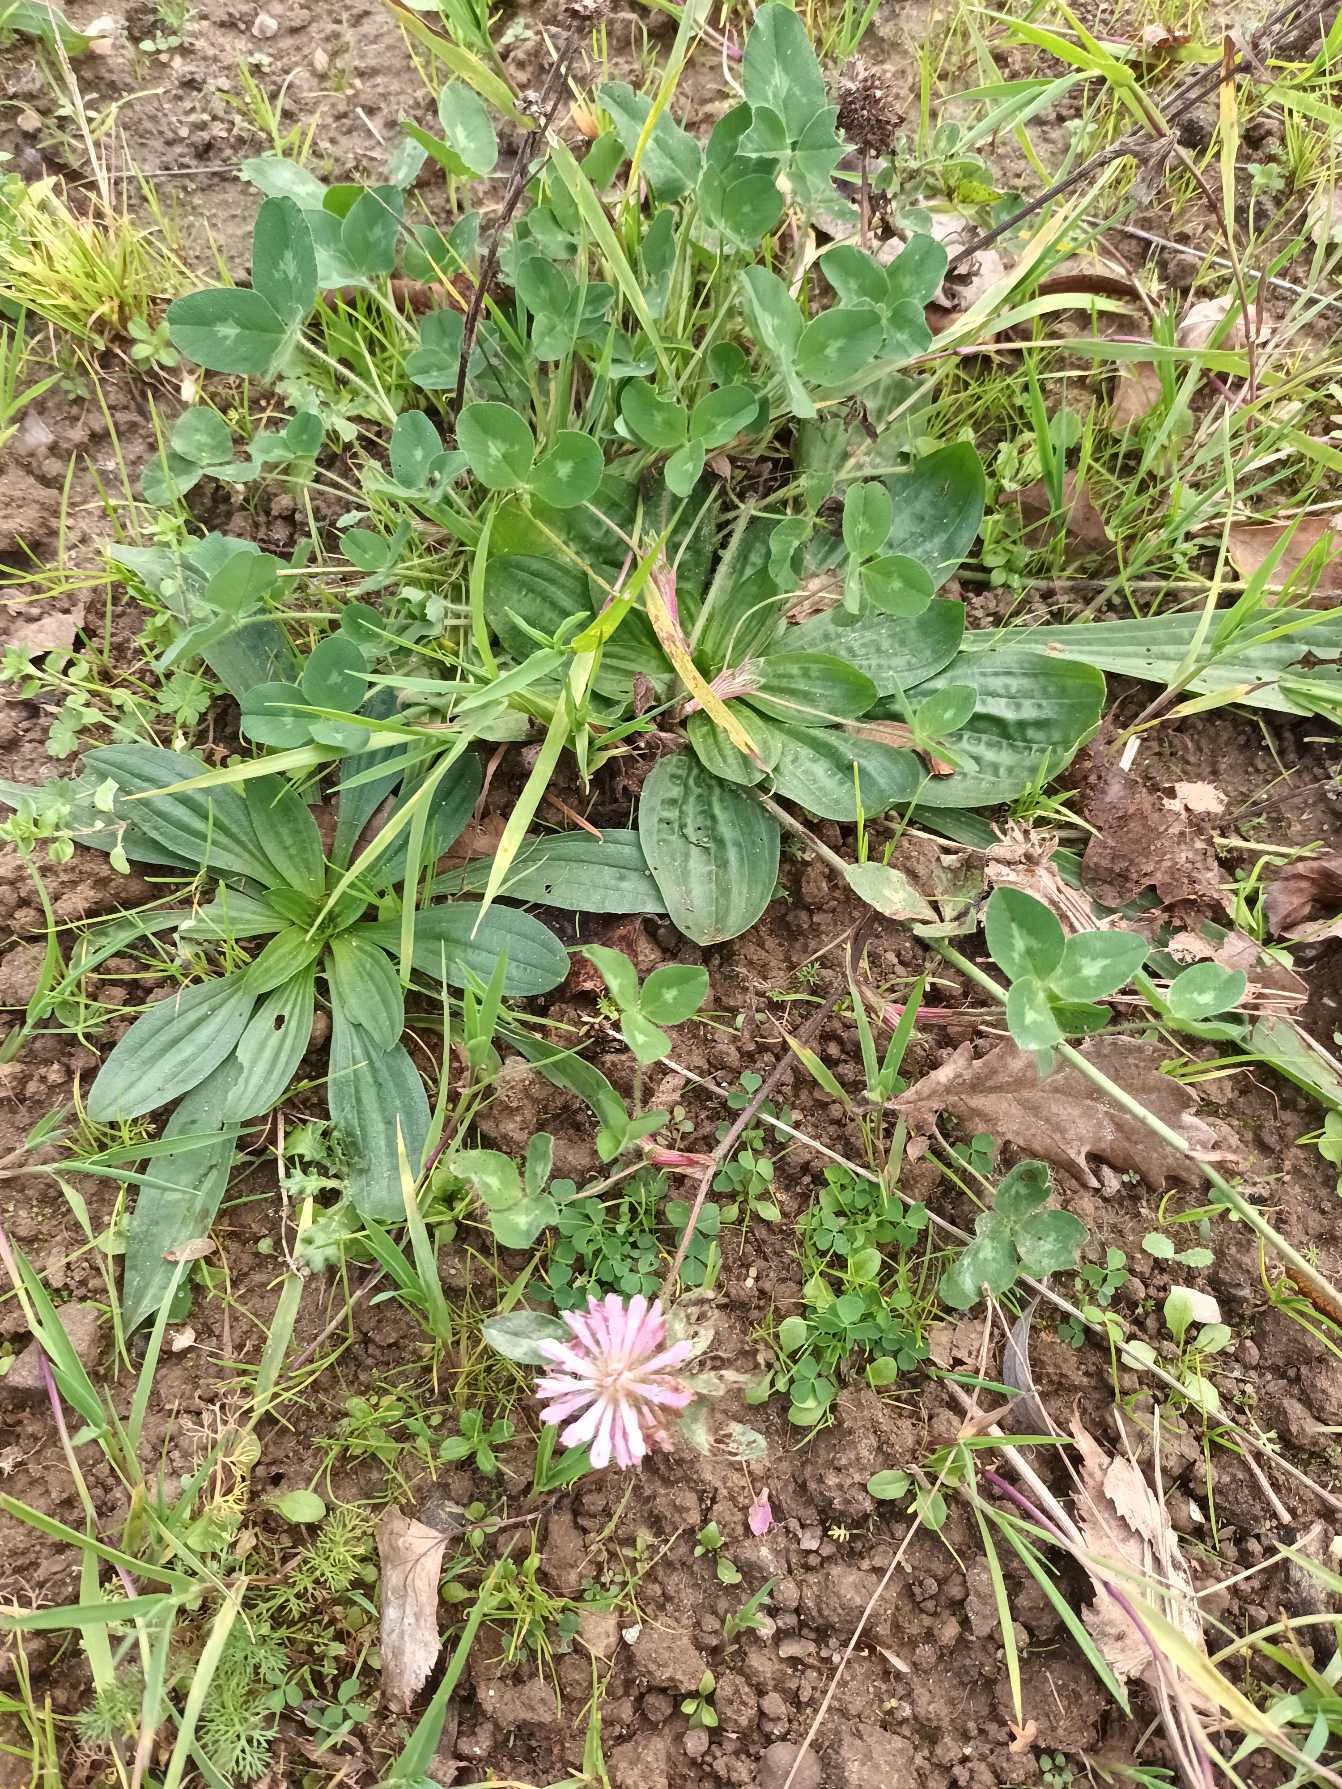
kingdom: Plantae
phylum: Tracheophyta
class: Magnoliopsida
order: Fabales
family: Fabaceae
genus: Trifolium
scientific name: Trifolium pratense
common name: Rød-kløver
